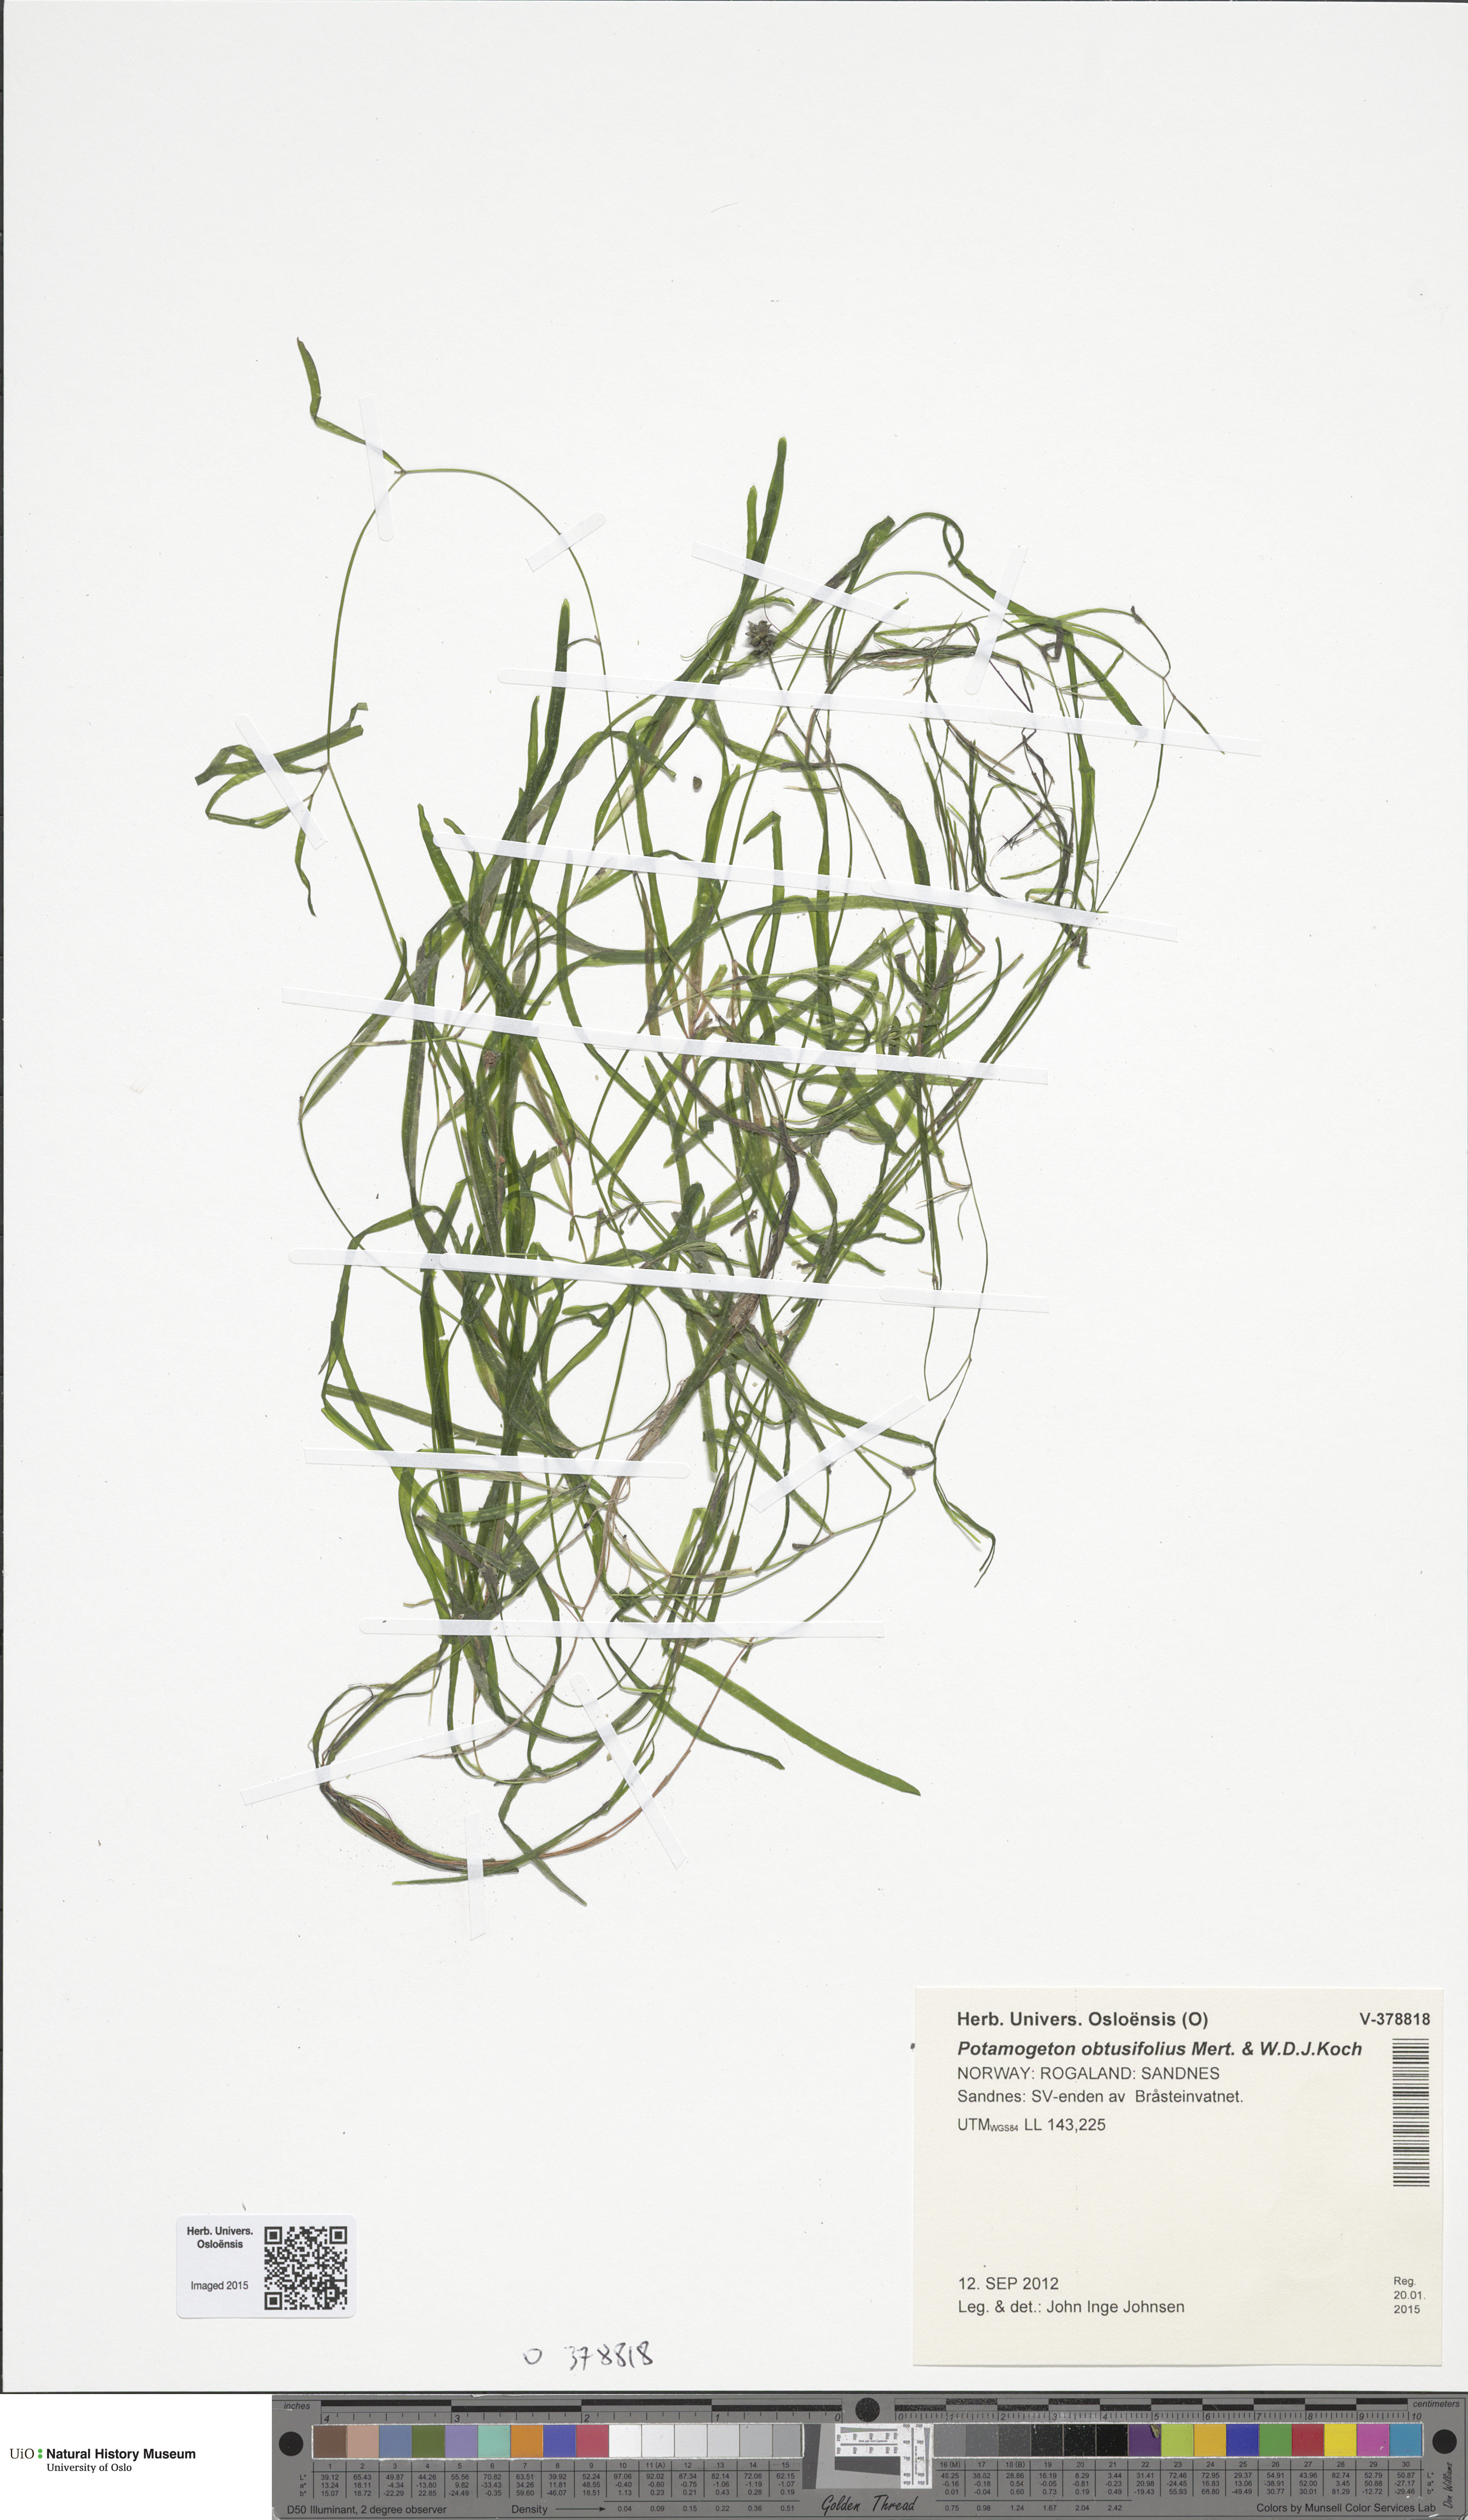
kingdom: Plantae
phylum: Tracheophyta
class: Liliopsida
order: Alismatales
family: Potamogetonaceae
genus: Potamogeton
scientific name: Potamogeton obtusifolius
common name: Blunt-leaved pondweed
